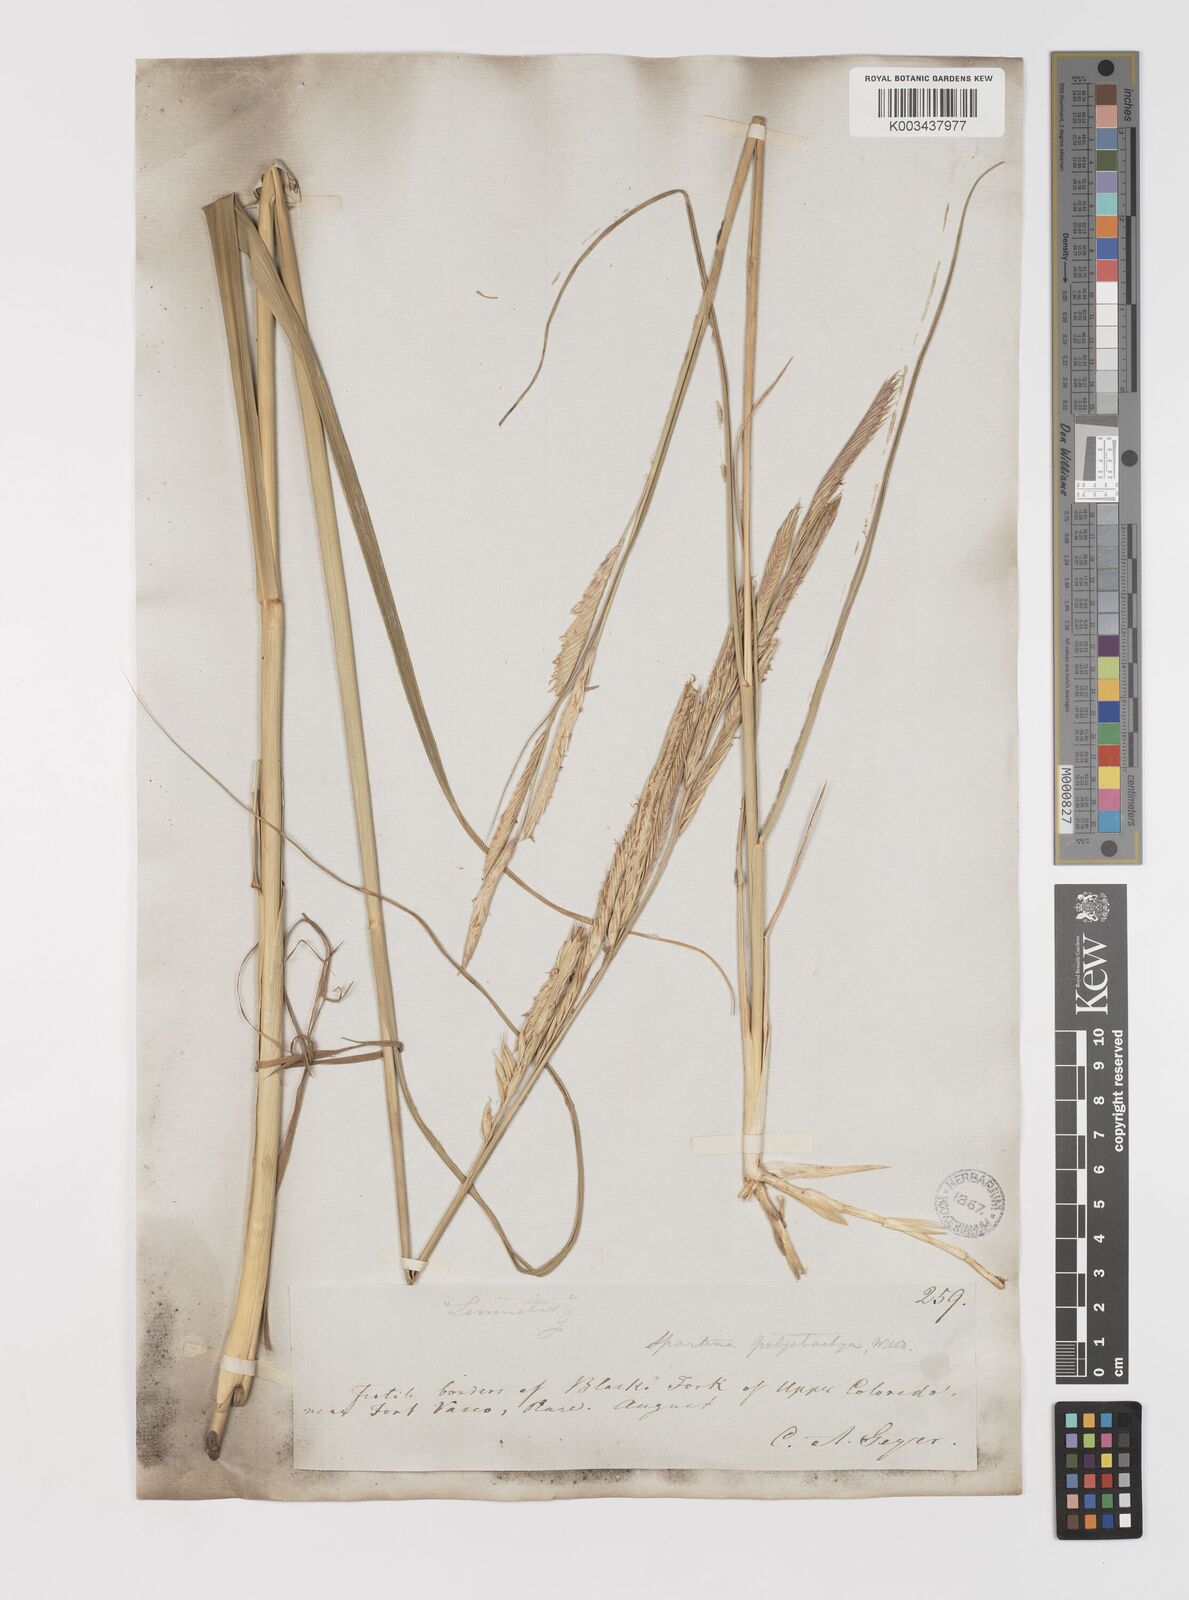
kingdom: Plantae
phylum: Tracheophyta
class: Liliopsida
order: Poales
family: Poaceae
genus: Sporobolus
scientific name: Sporobolus michauxianus
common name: Freshwater cordgrass
